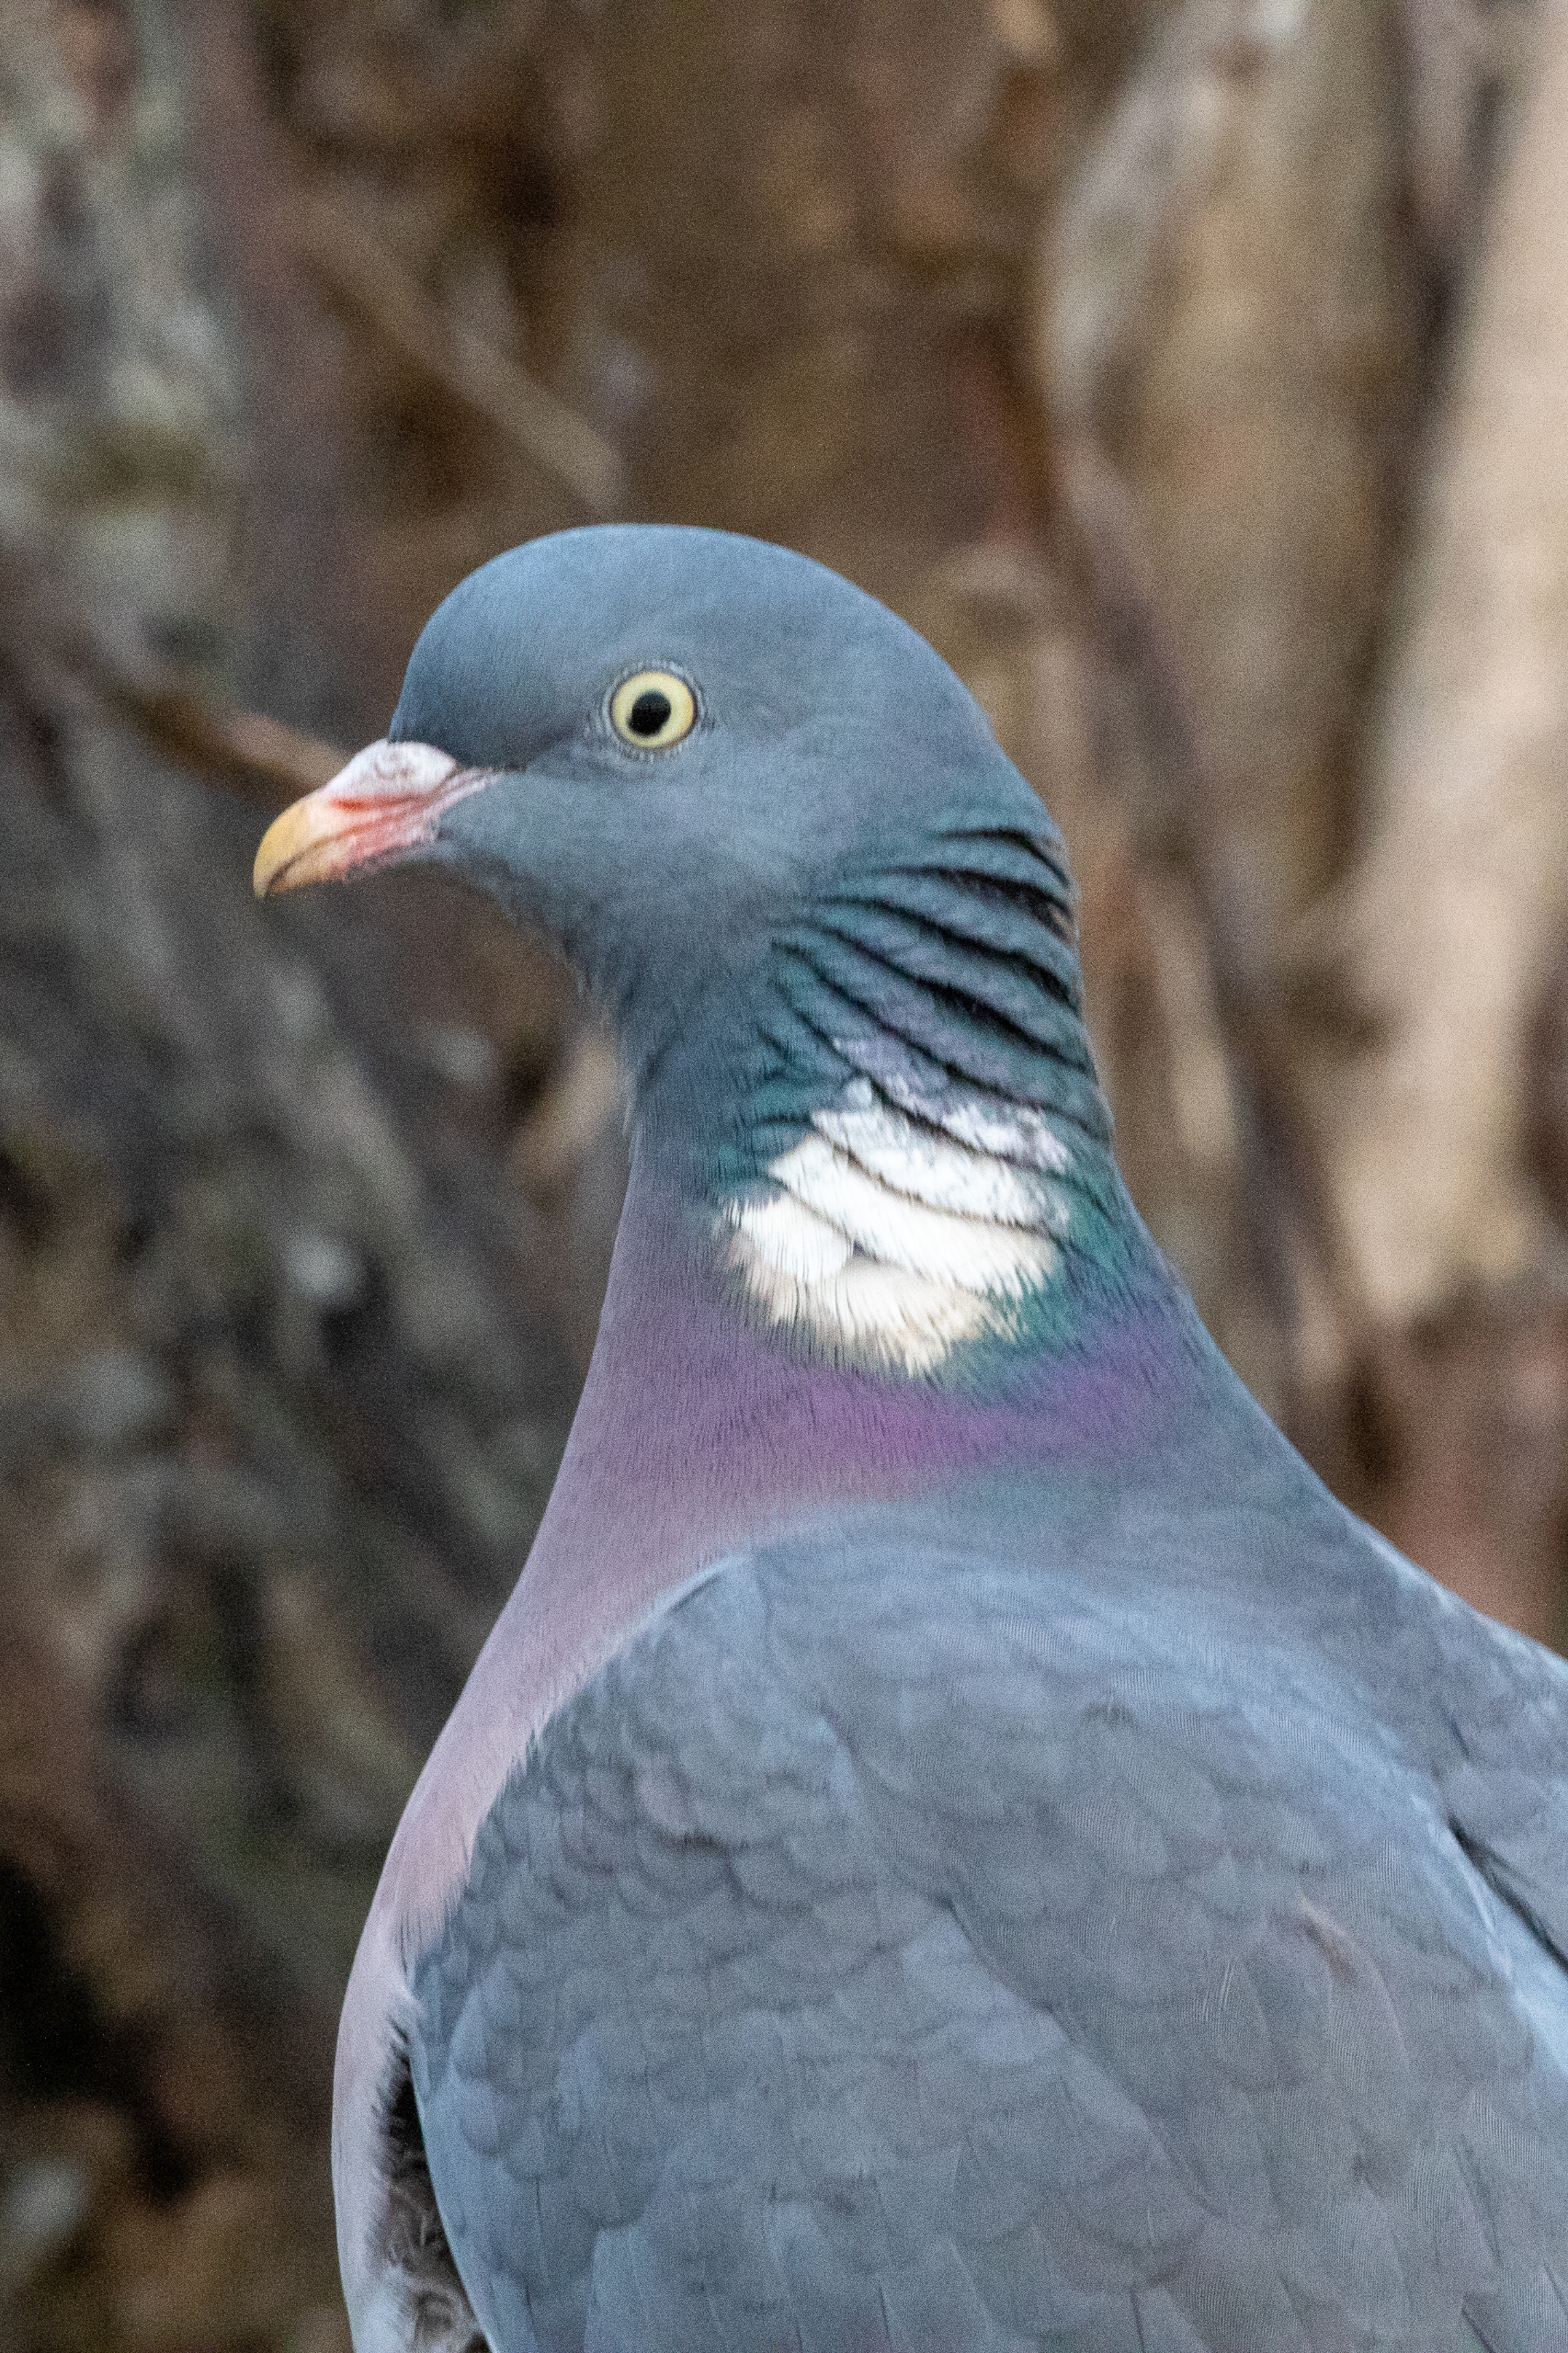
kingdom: Animalia
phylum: Chordata
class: Aves
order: Columbiformes
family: Columbidae
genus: Columba
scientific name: Columba palumbus
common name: Ringdue
